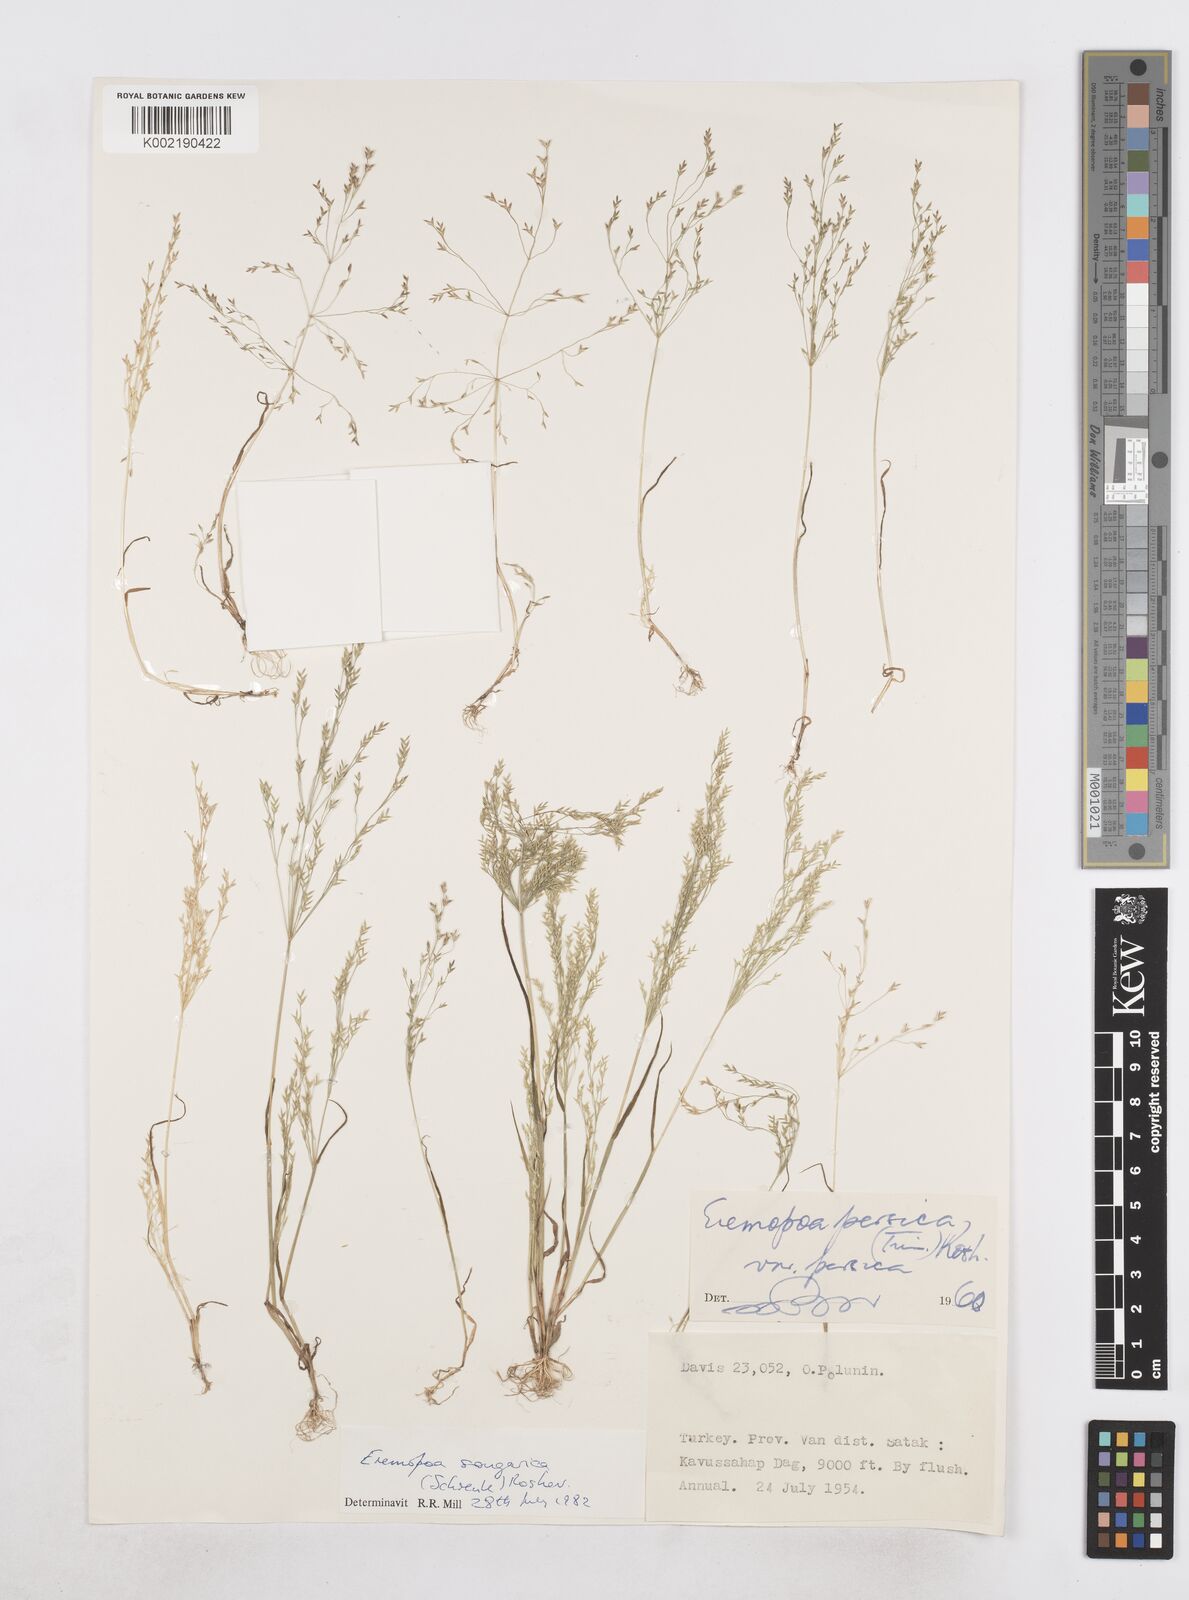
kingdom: Plantae
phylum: Tracheophyta
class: Liliopsida
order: Poales
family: Poaceae
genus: Poa
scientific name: Poa diaphora
